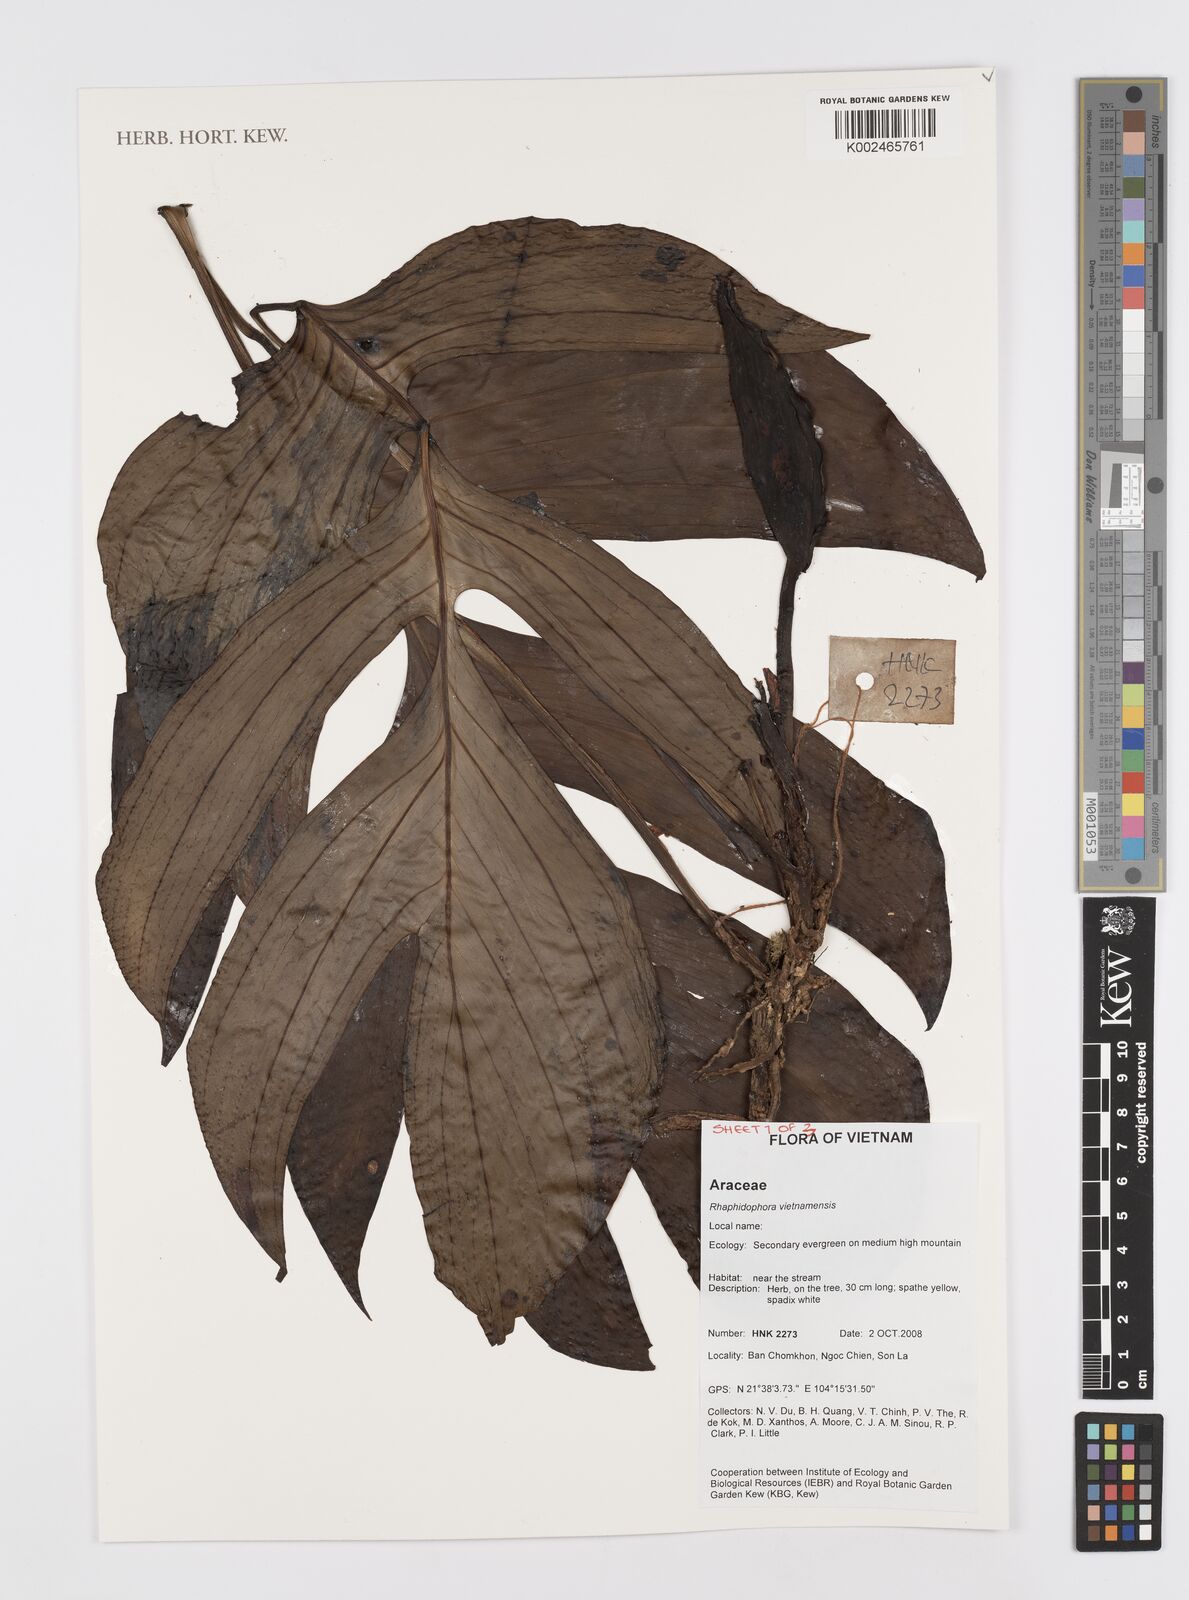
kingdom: Plantae
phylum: Tracheophyta
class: Liliopsida
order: Alismatales
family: Araceae
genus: Rhaphidophora
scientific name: Rhaphidophora
